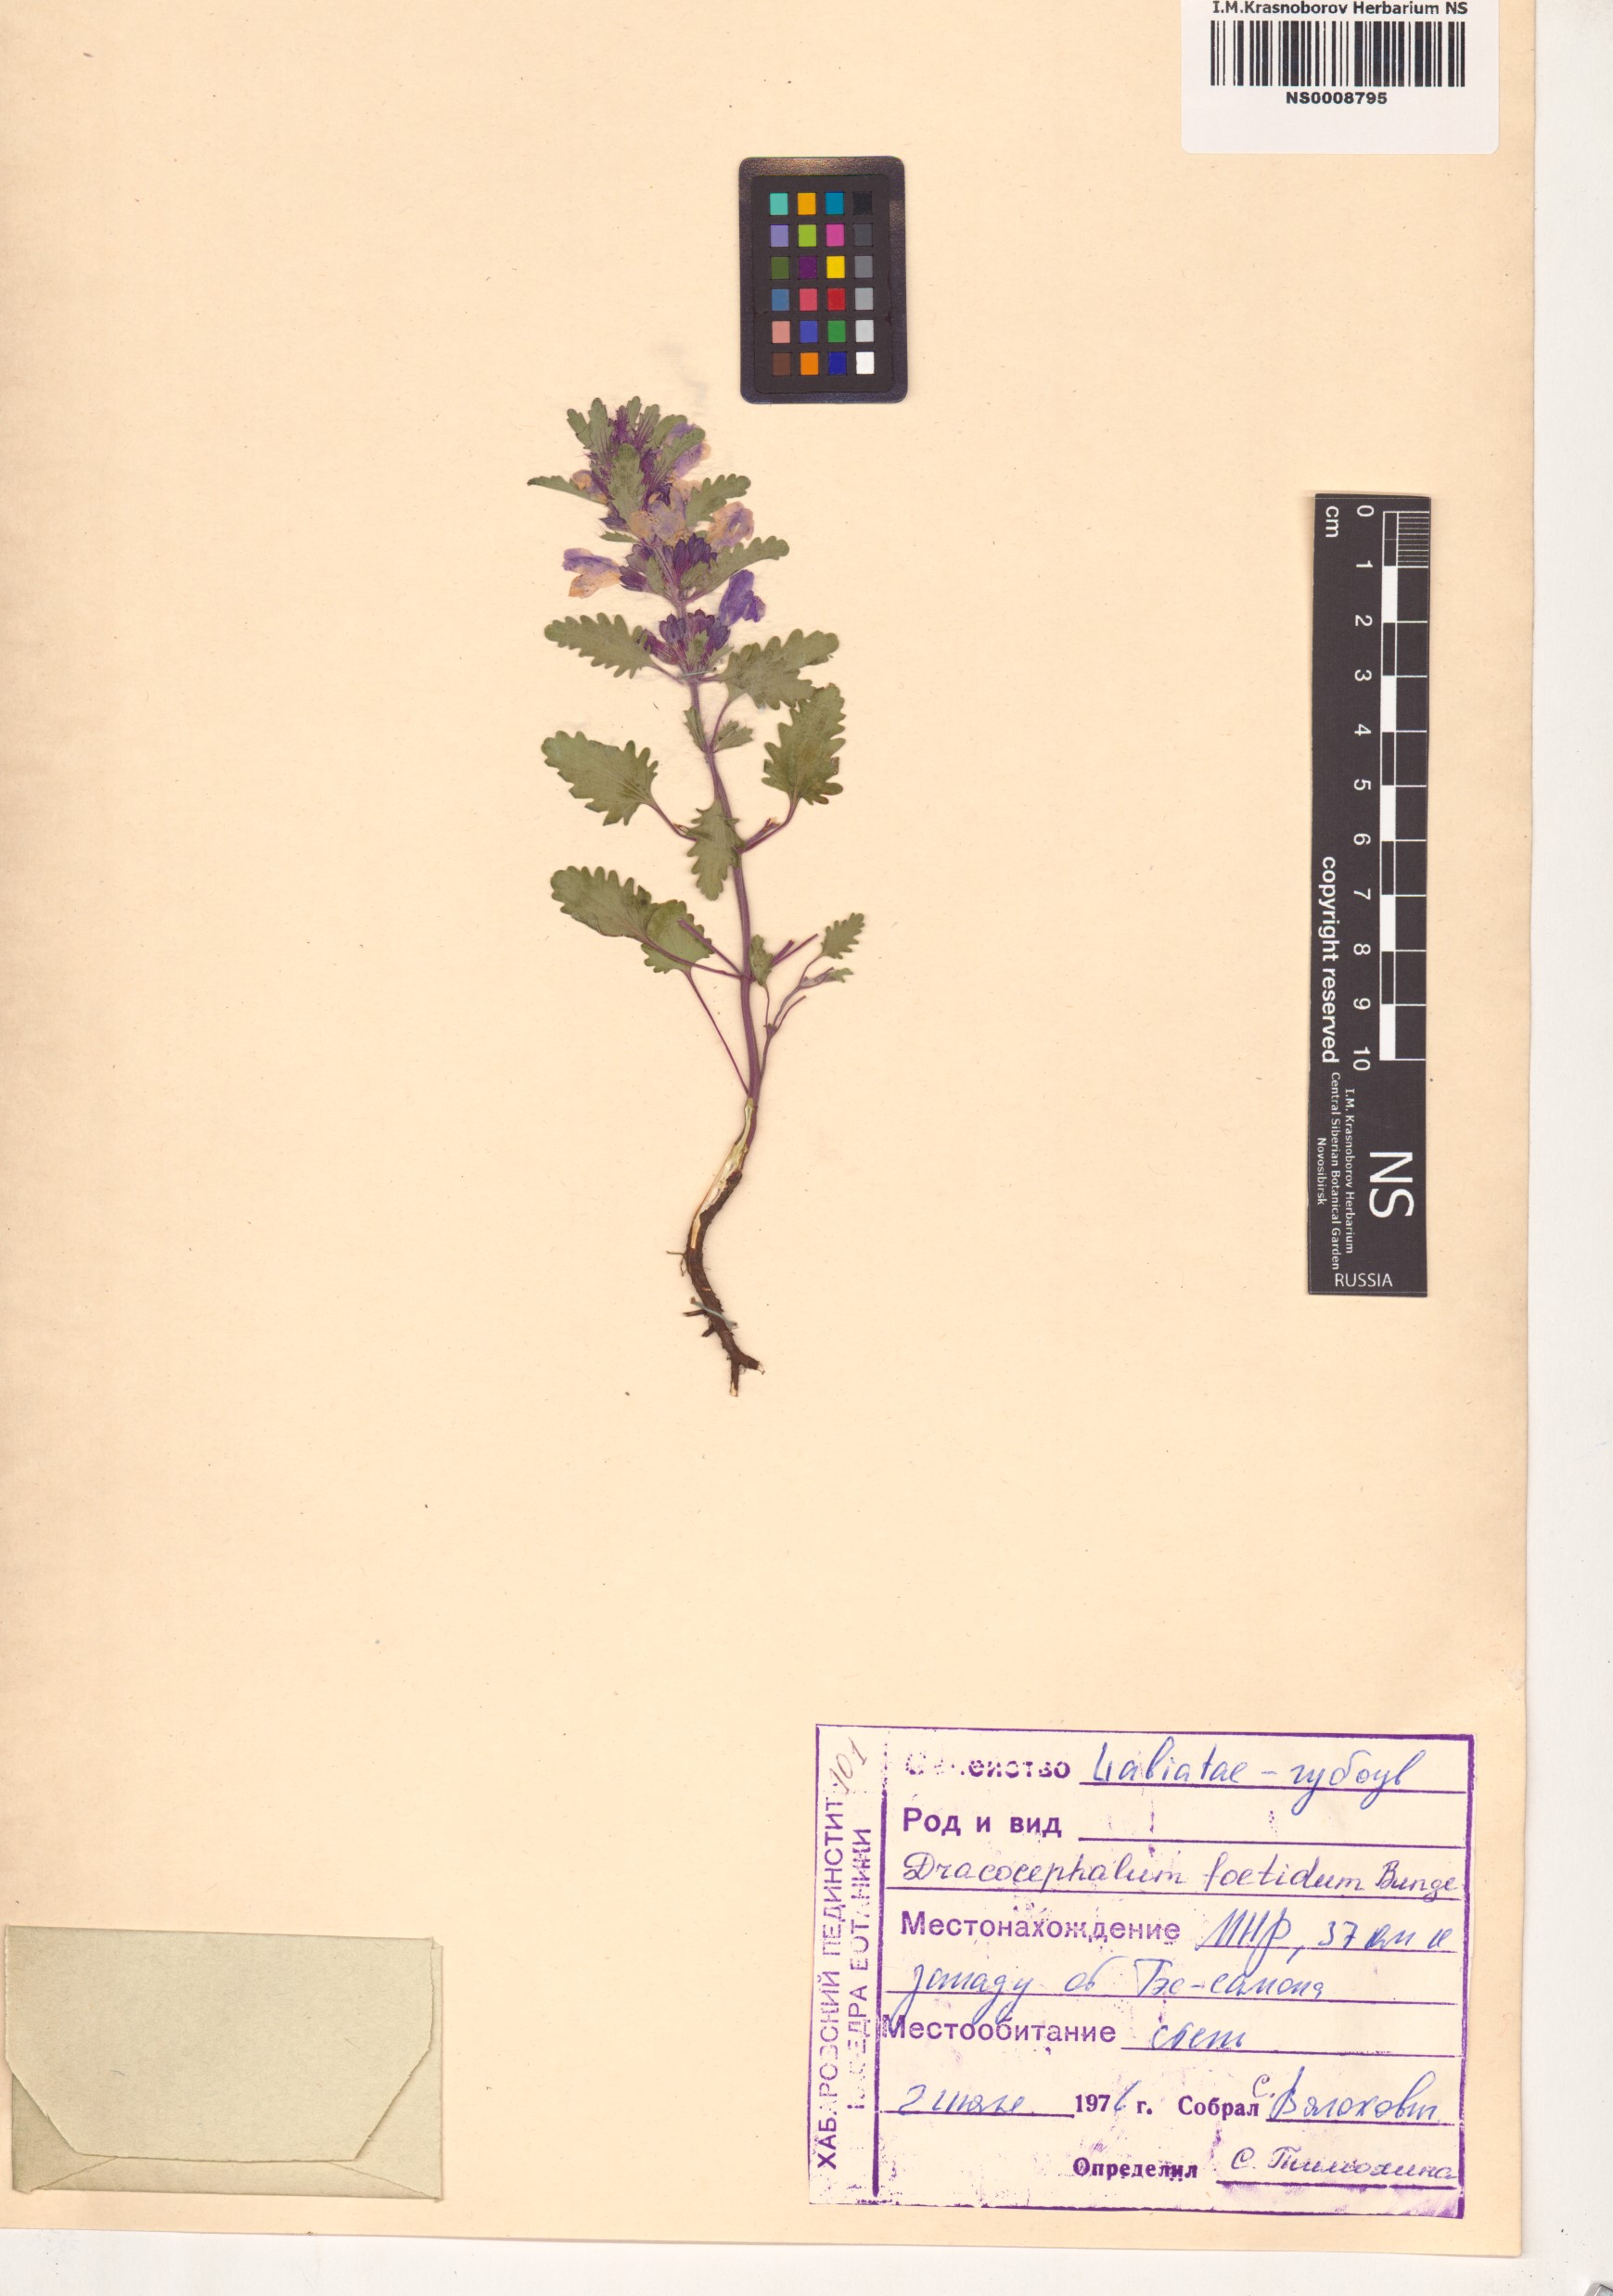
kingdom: Plantae
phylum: Tracheophyta
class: Magnoliopsida
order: Lamiales
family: Lamiaceae
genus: Dracocephalum
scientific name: Dracocephalum foetidum
